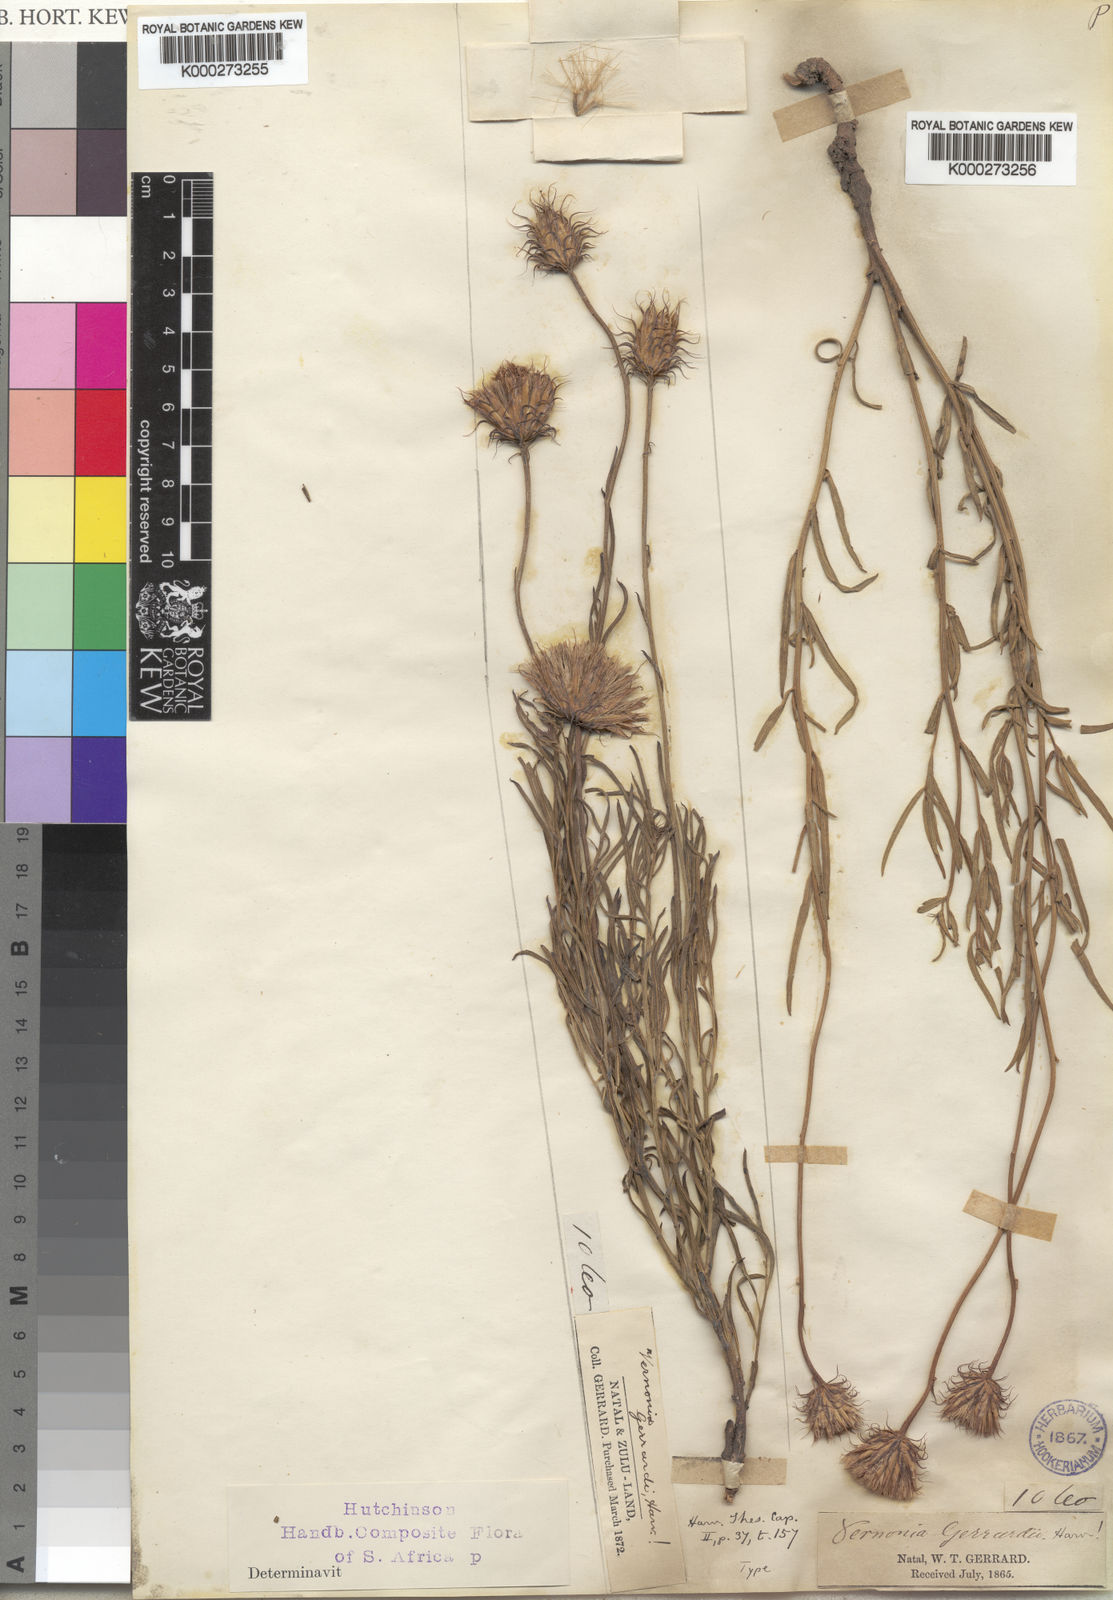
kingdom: Plantae
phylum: Tracheophyta
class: Magnoliopsida
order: Asterales
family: Asteraceae
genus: Parapolydora
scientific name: Parapolydora gerrardii
